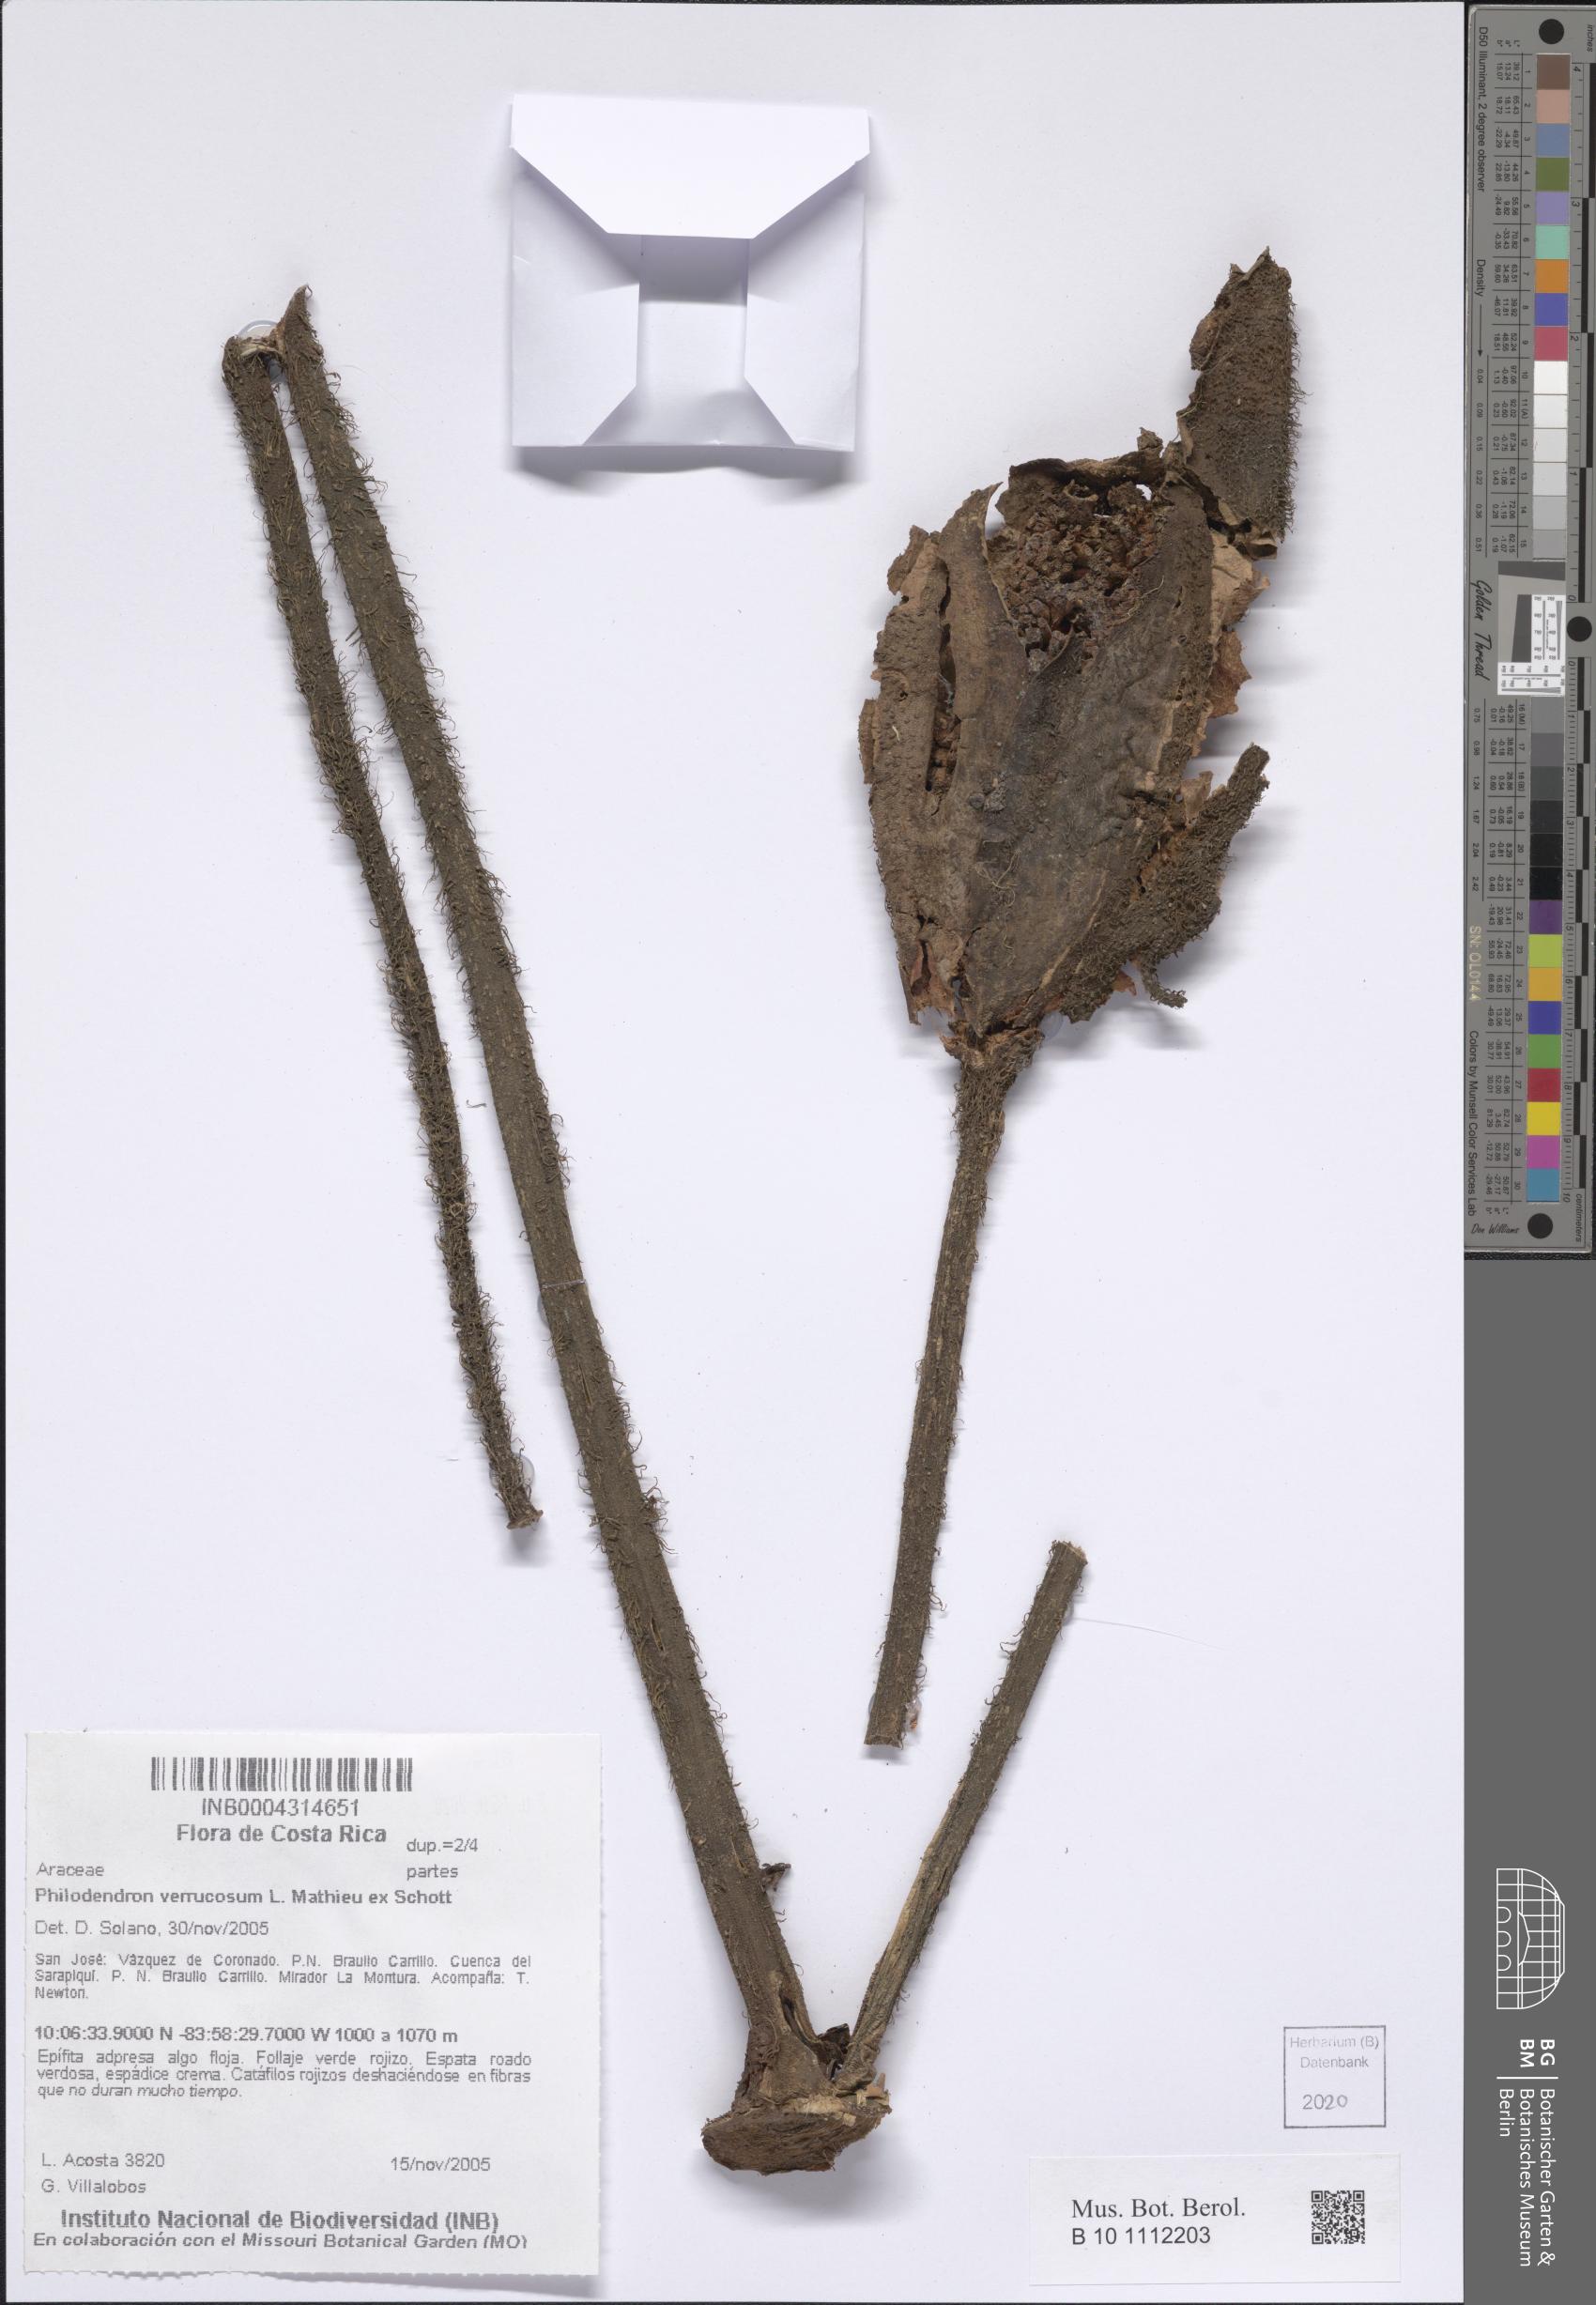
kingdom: Plantae
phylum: Tracheophyta
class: Liliopsida
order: Alismatales
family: Araceae
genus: Philodendron
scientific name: Philodendron verrucosum
